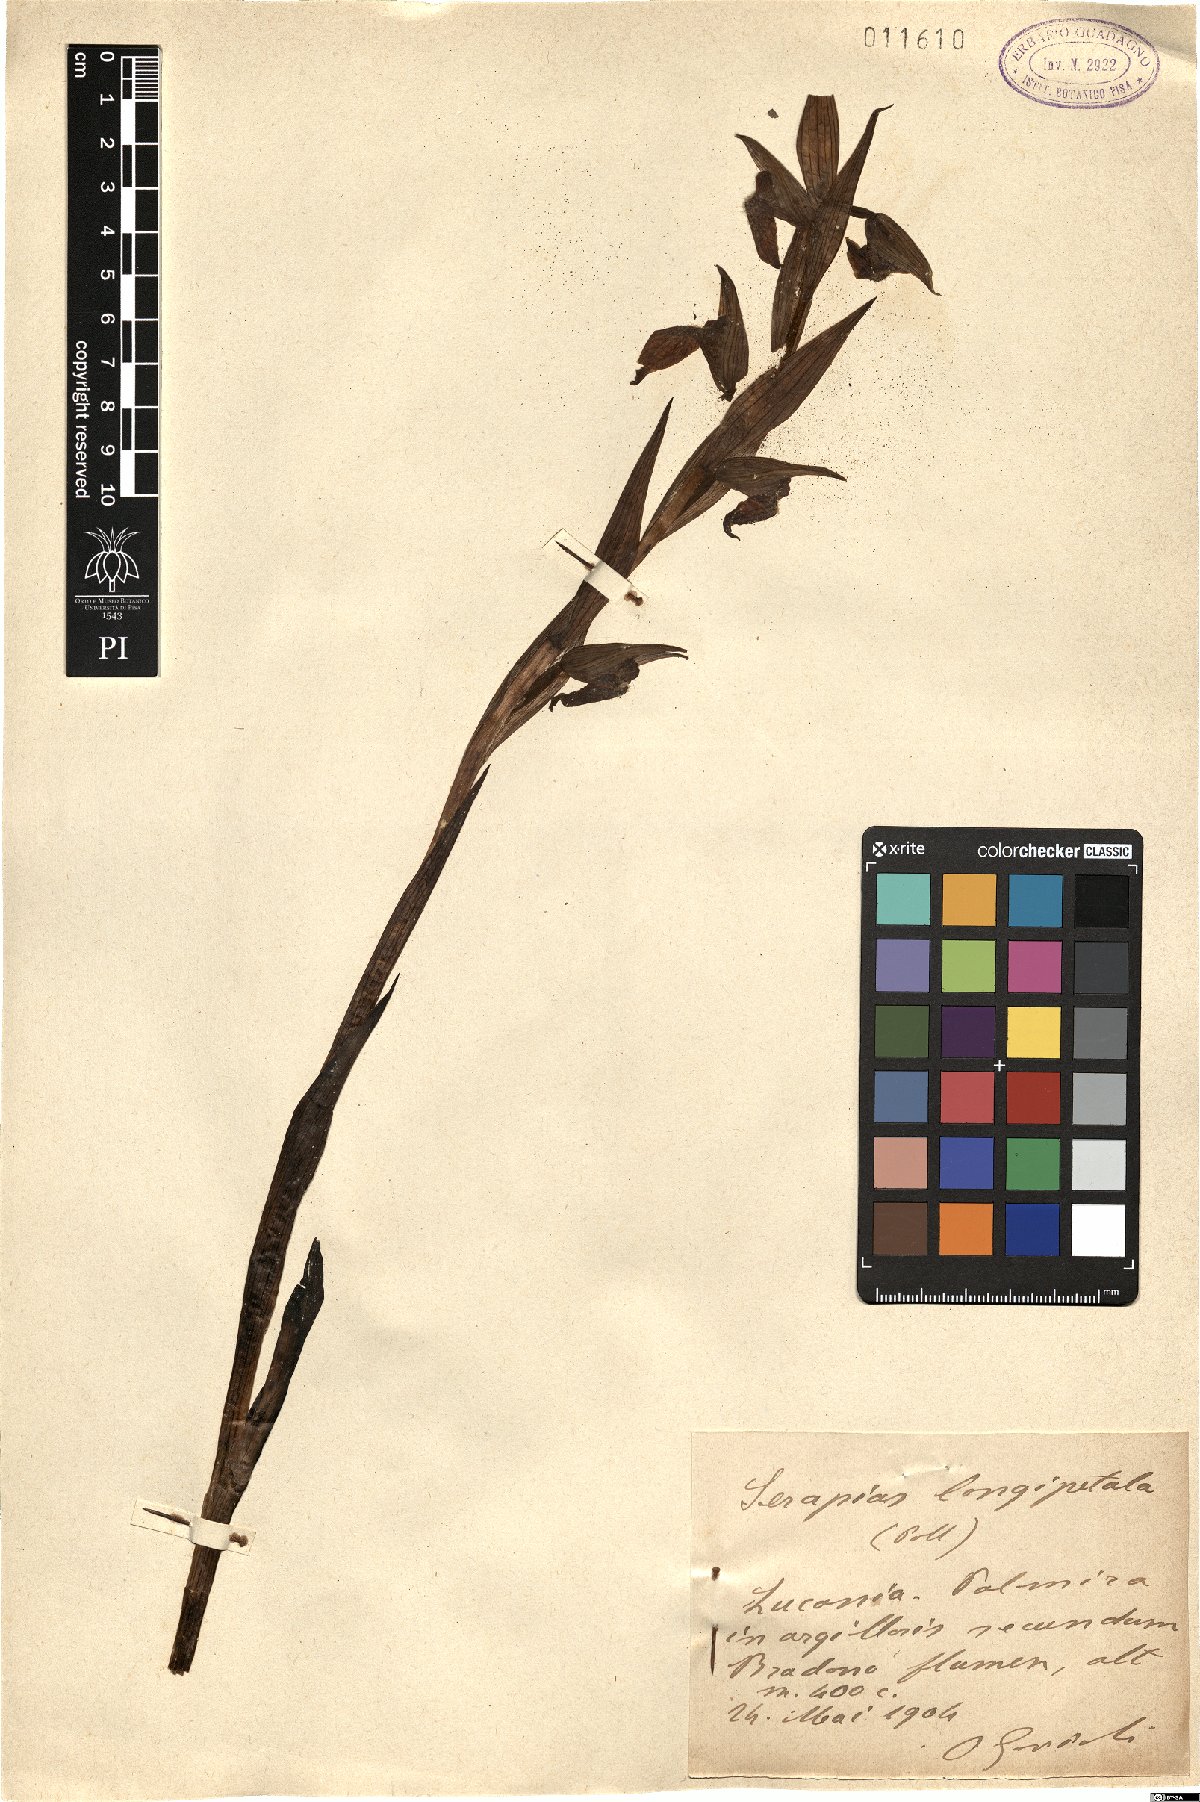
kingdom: Plantae
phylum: Tracheophyta
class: Liliopsida
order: Asparagales
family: Orchidaceae
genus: Serapias
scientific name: Serapias vomeracea
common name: Long-lipped tongue-orchid
